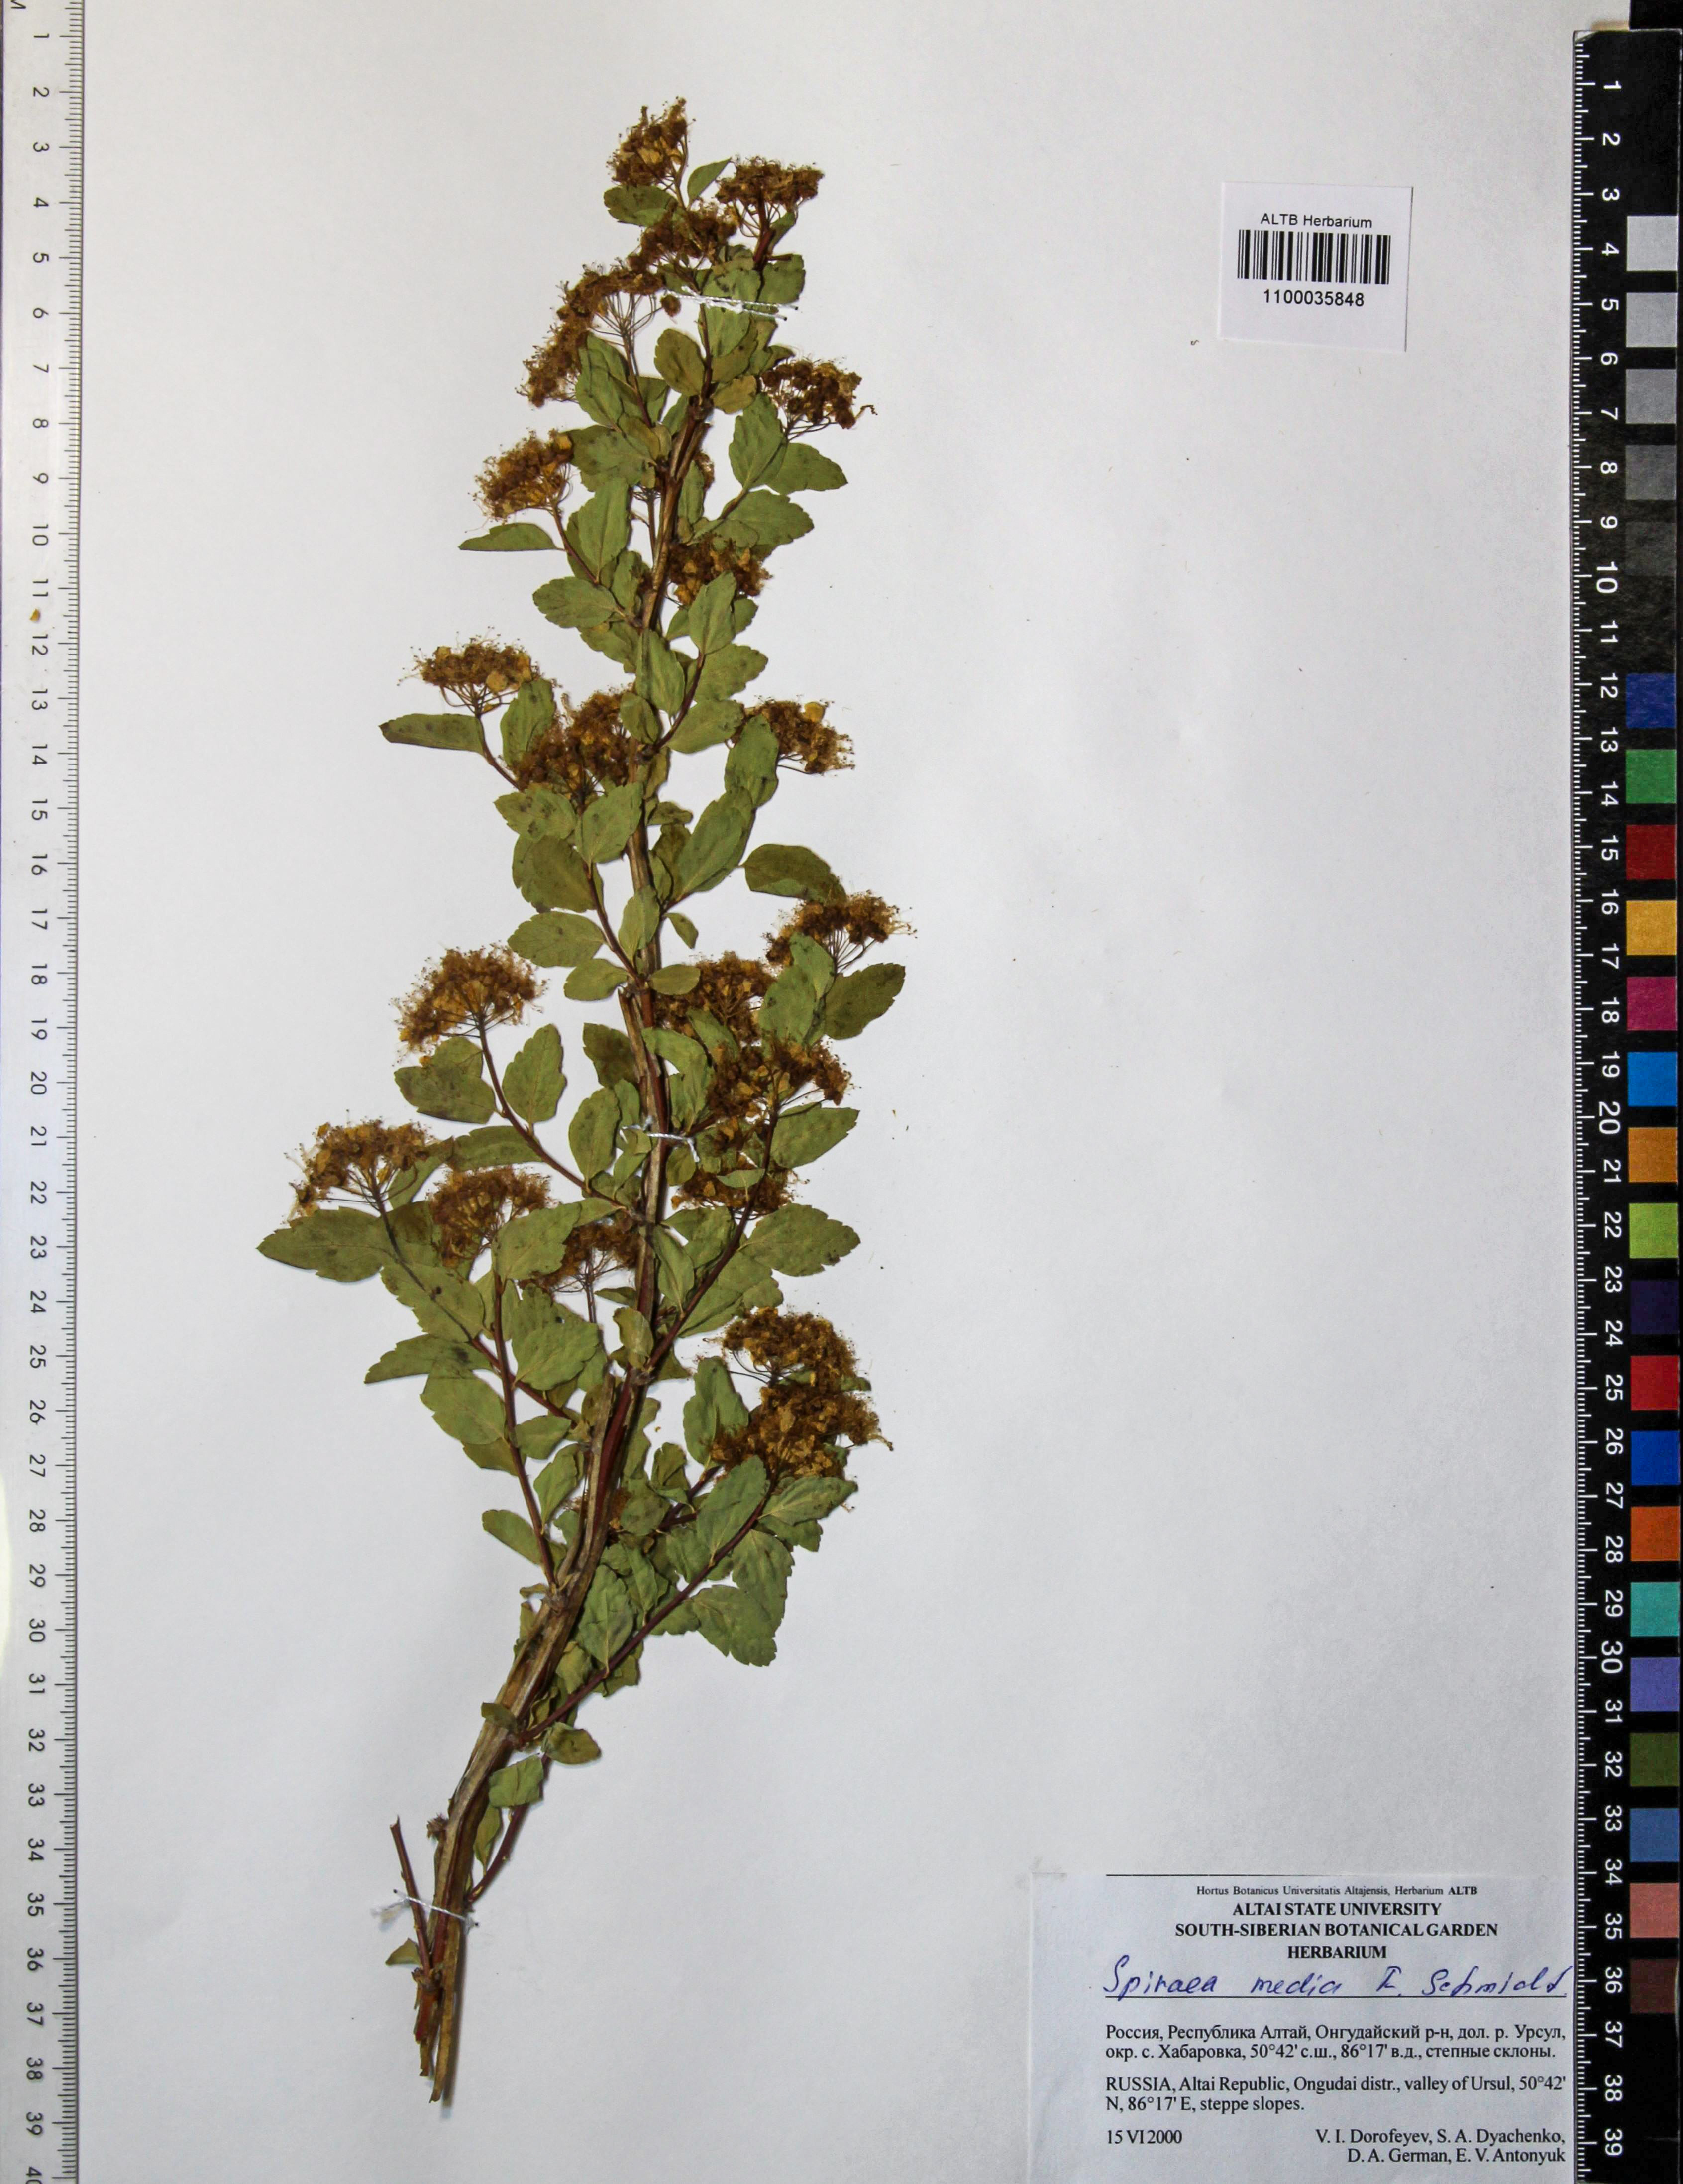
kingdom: Plantae
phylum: Tracheophyta
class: Magnoliopsida
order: Rosales
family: Rosaceae
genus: Spiraea
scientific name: Spiraea media
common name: Russian spiraea
